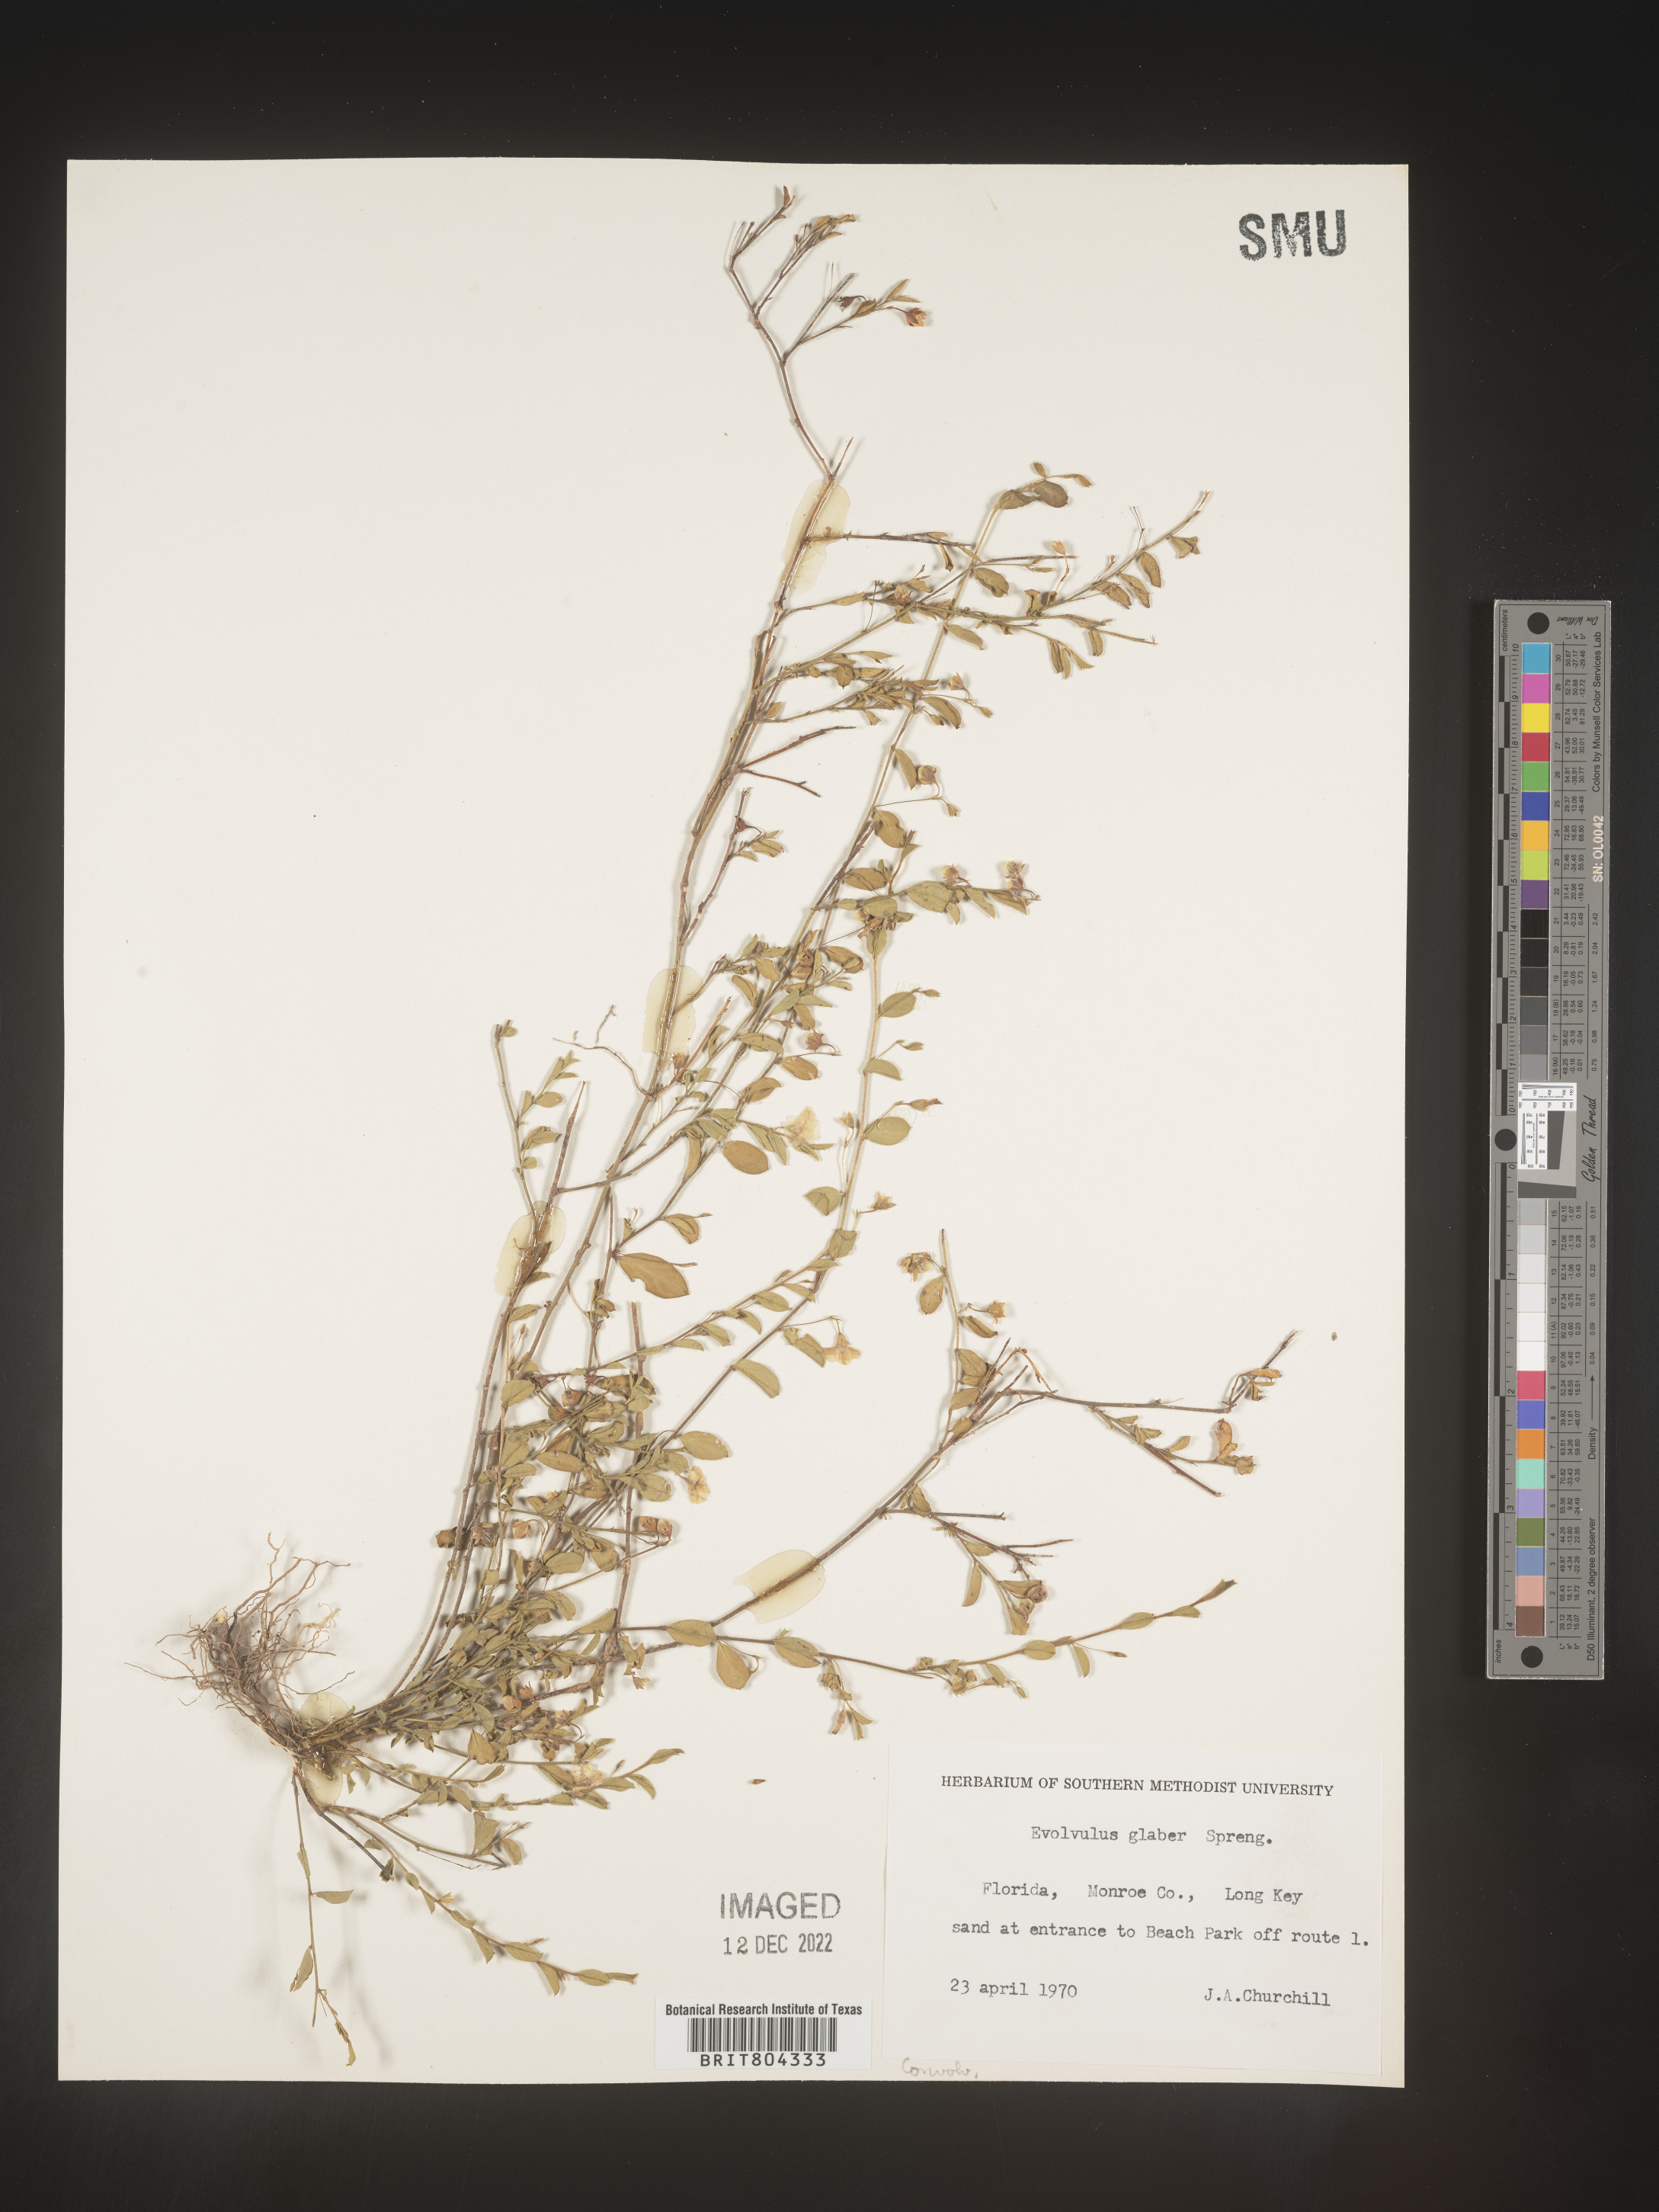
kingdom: Plantae
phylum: Tracheophyta
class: Magnoliopsida
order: Solanales
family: Convolvulaceae
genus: Evolvulus
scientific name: Evolvulus convolvuloides
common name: Bindweed dwarf morning-glory
